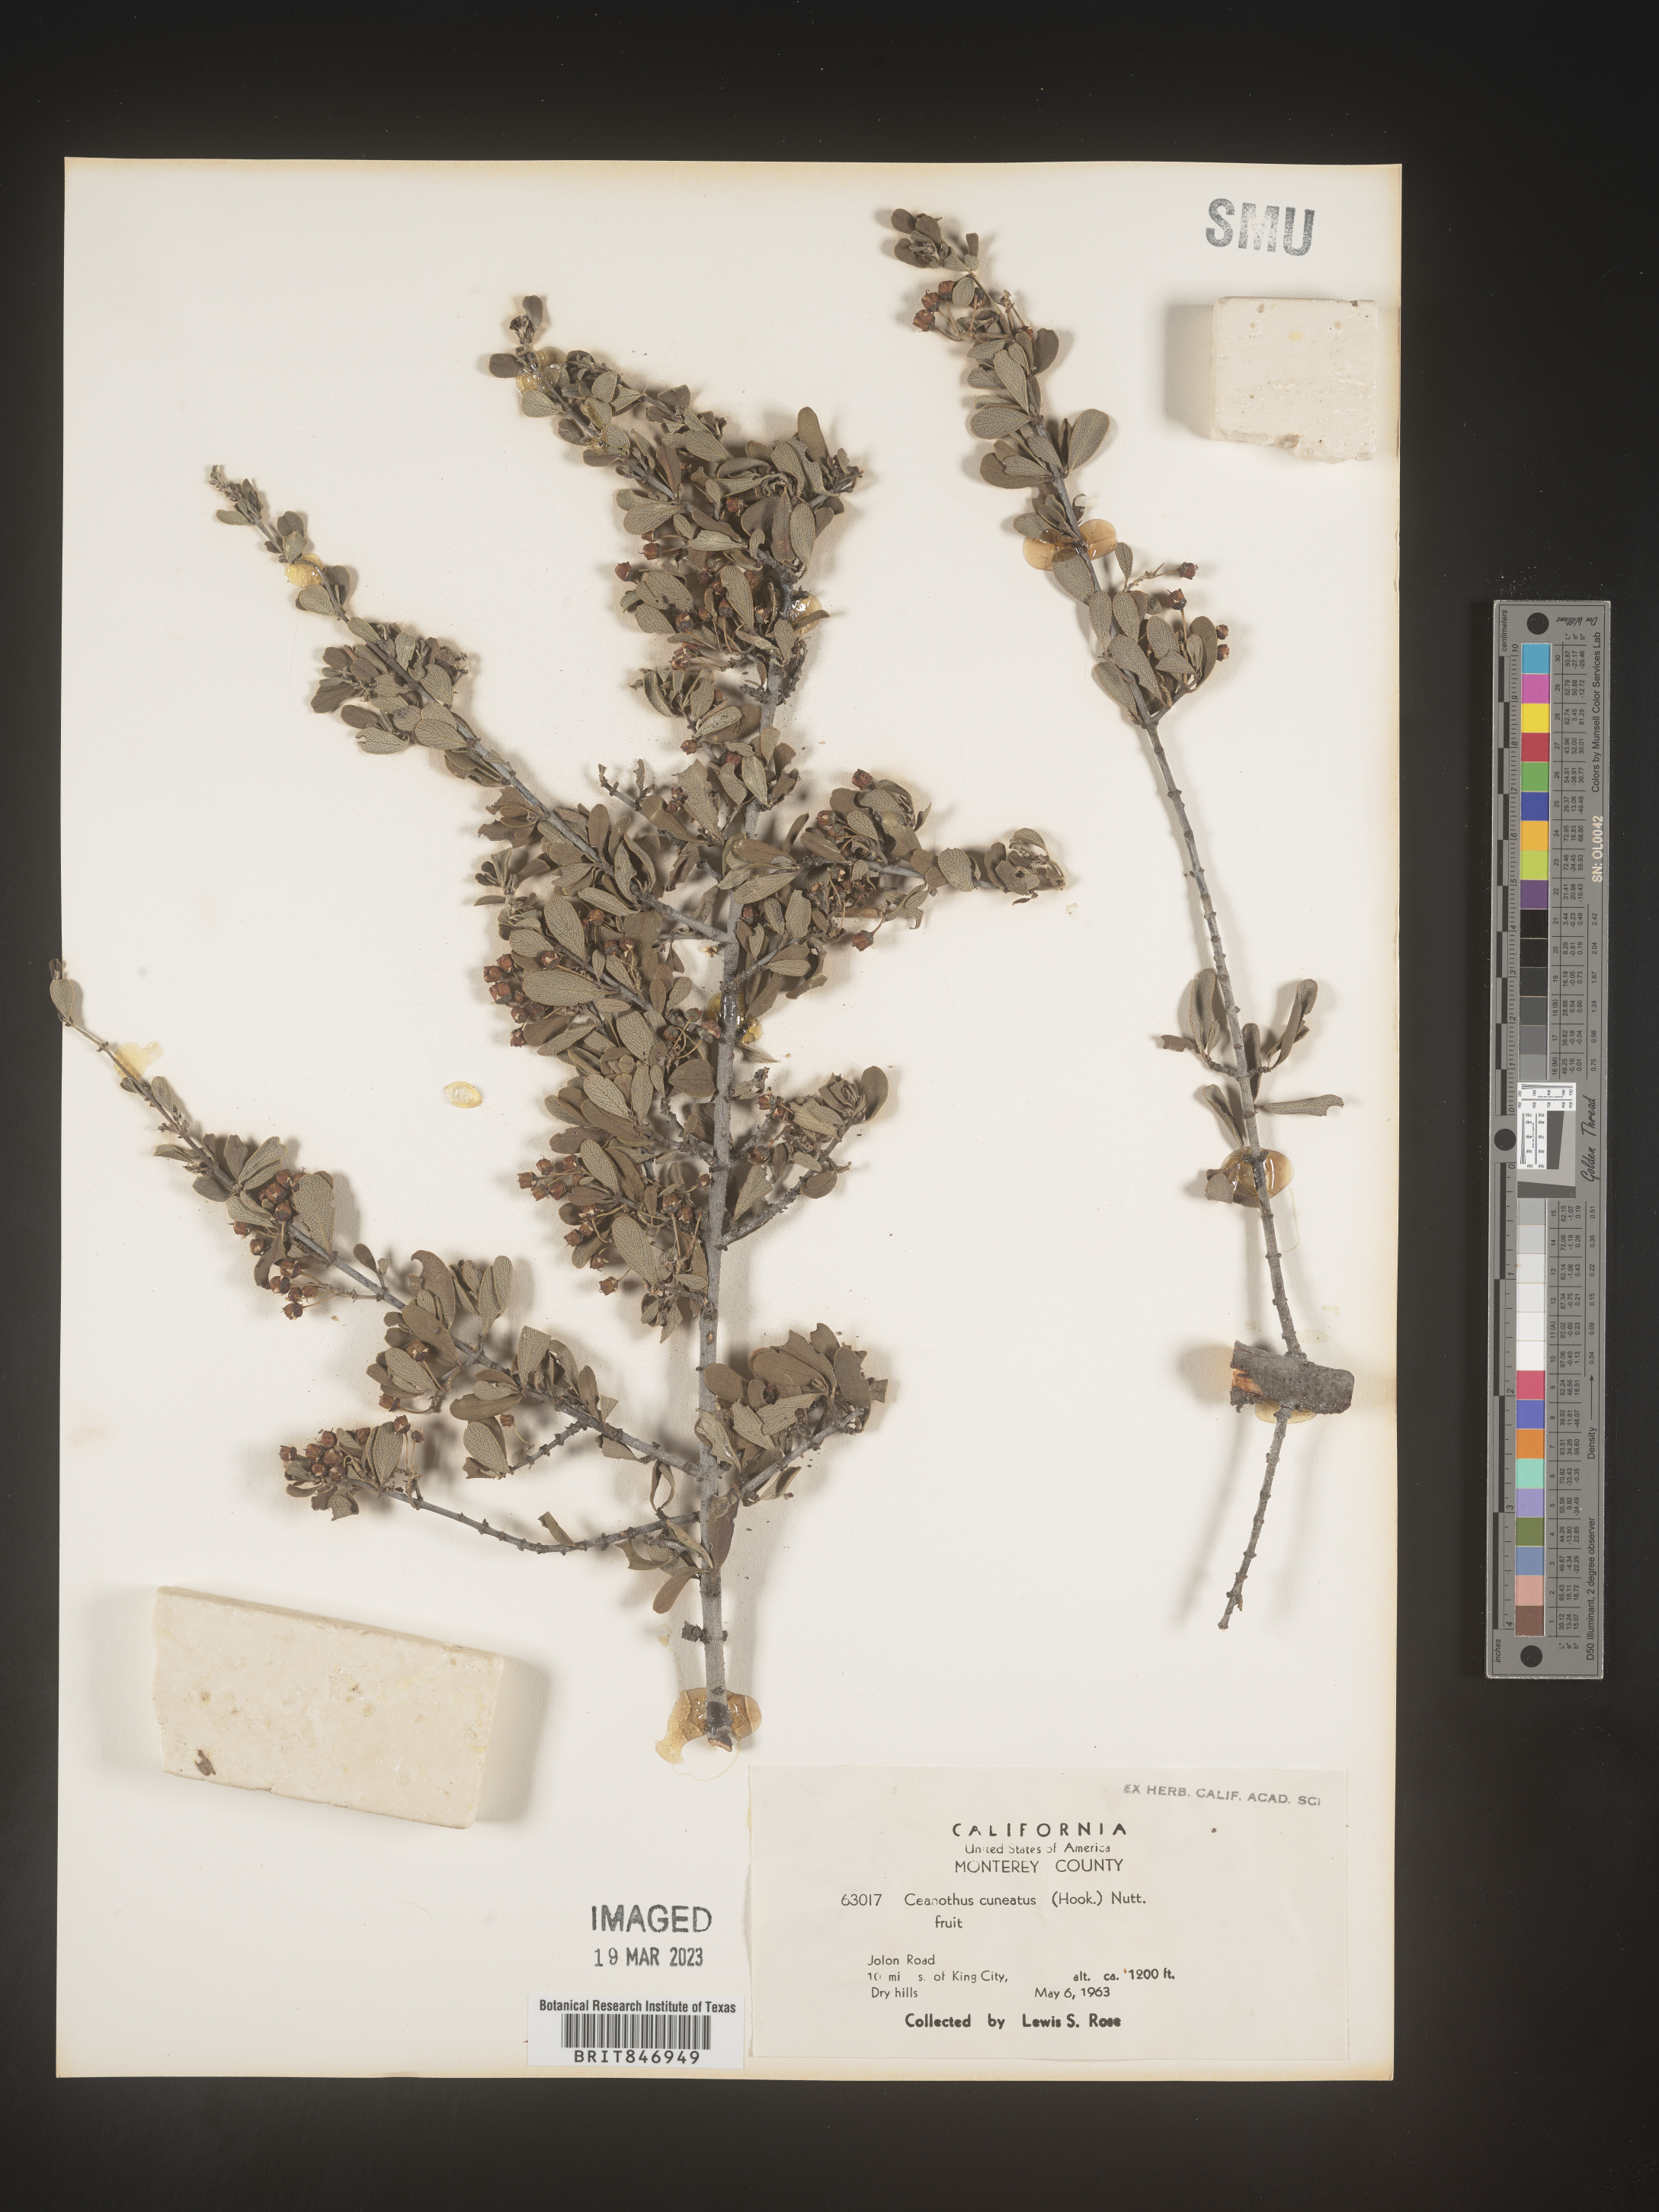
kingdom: Plantae
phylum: Tracheophyta
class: Magnoliopsida
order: Rosales
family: Rhamnaceae
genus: Ceanothus
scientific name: Ceanothus cuneatus
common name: Cuneate ceanothus
